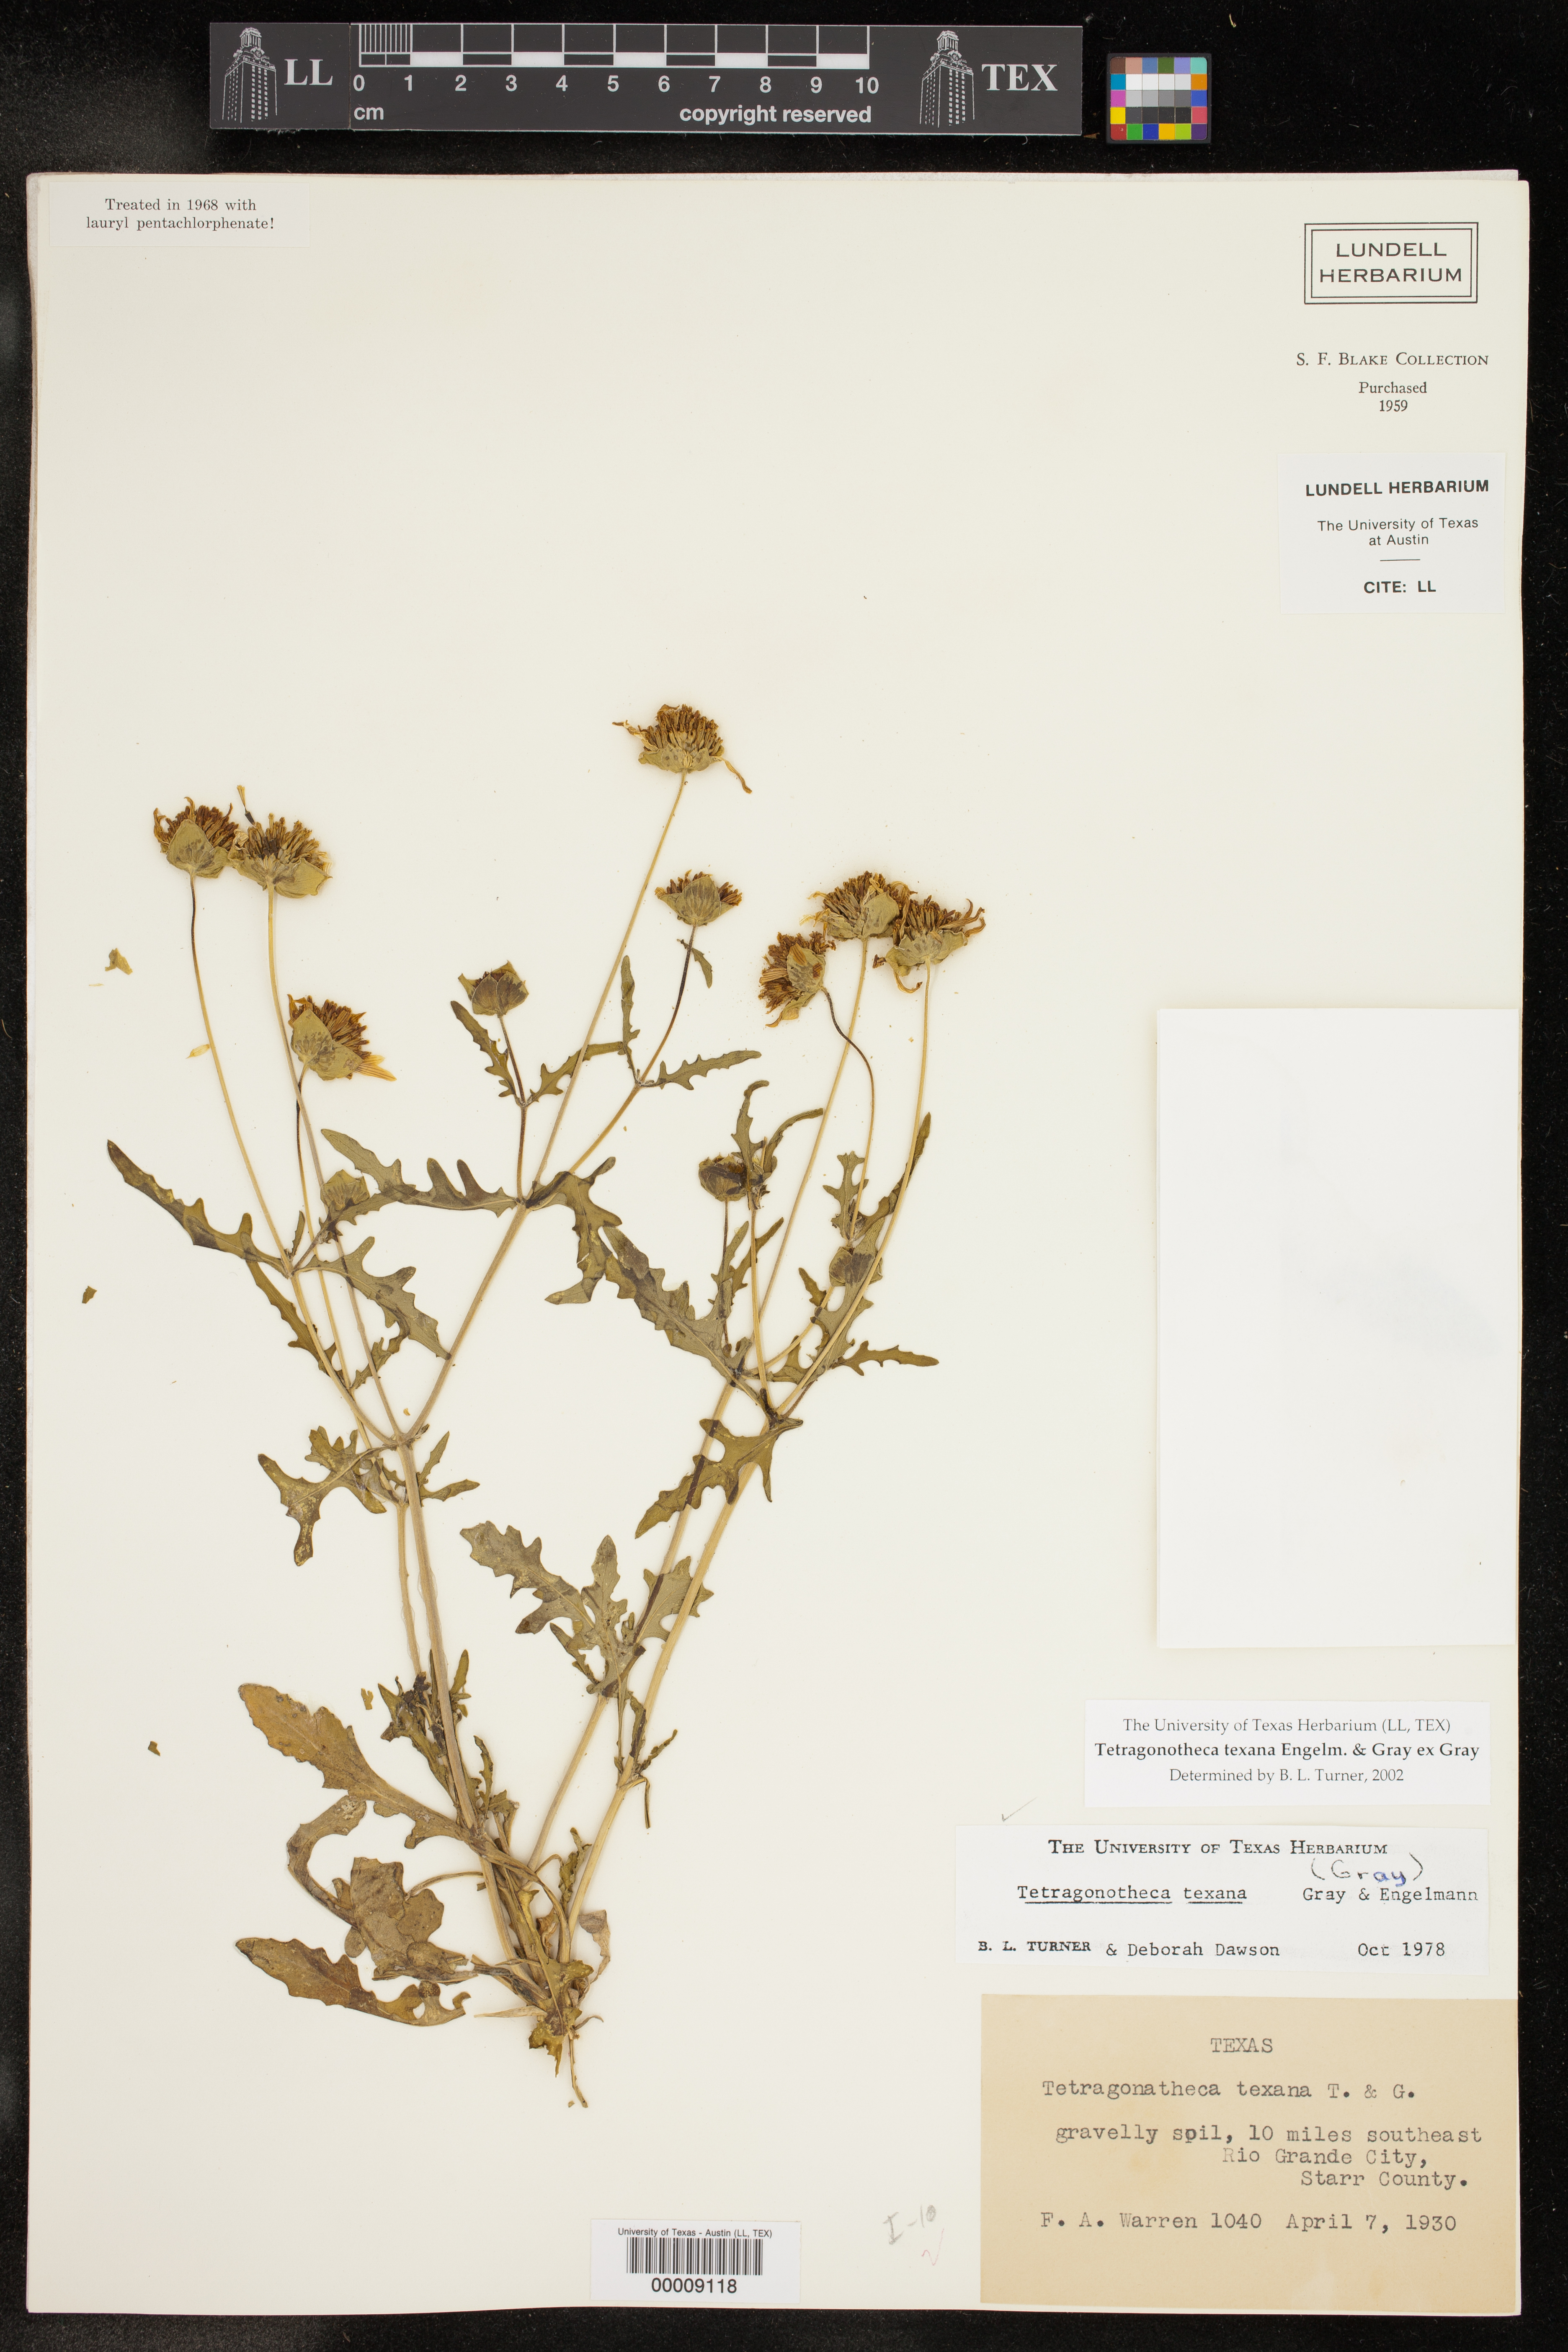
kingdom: Plantae
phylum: Tracheophyta
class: Magnoliopsida
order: Asterales
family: Asteraceae
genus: Tetragonotheca
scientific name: Tetragonotheca texana
